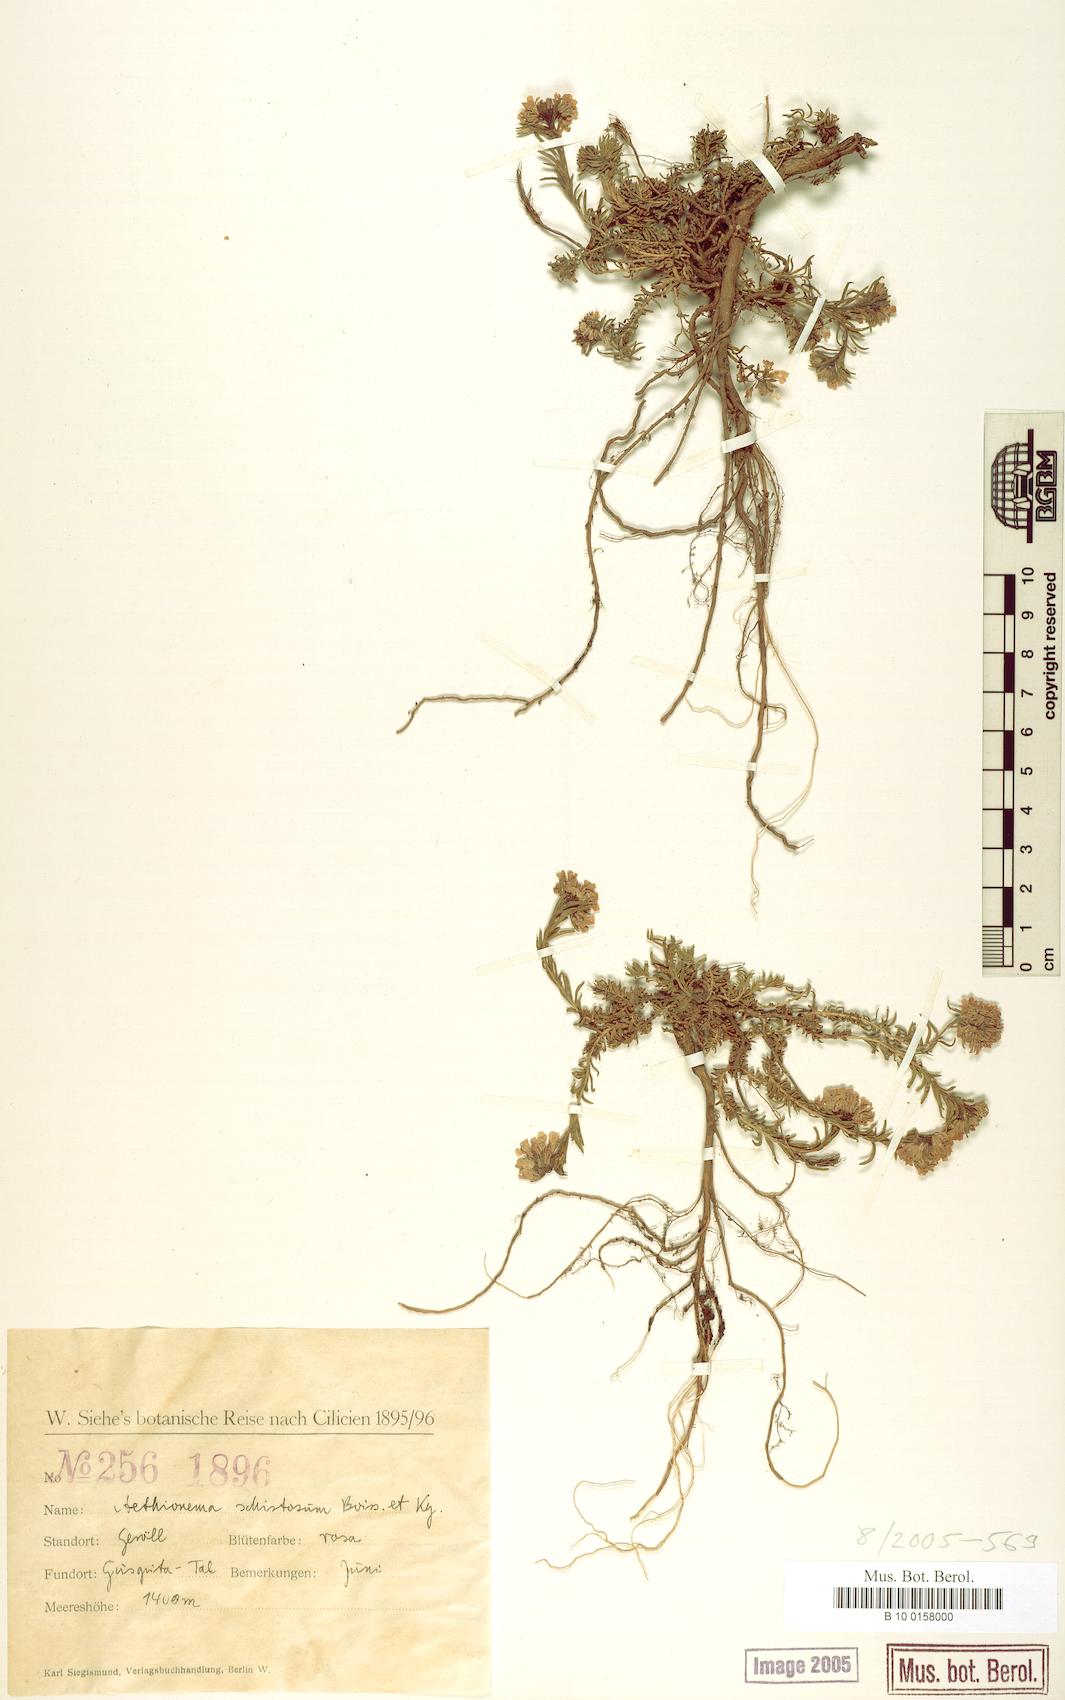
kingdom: Plantae
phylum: Tracheophyta
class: Magnoliopsida
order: Brassicales
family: Brassicaceae
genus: Aethionema
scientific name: Aethionema schistosum
